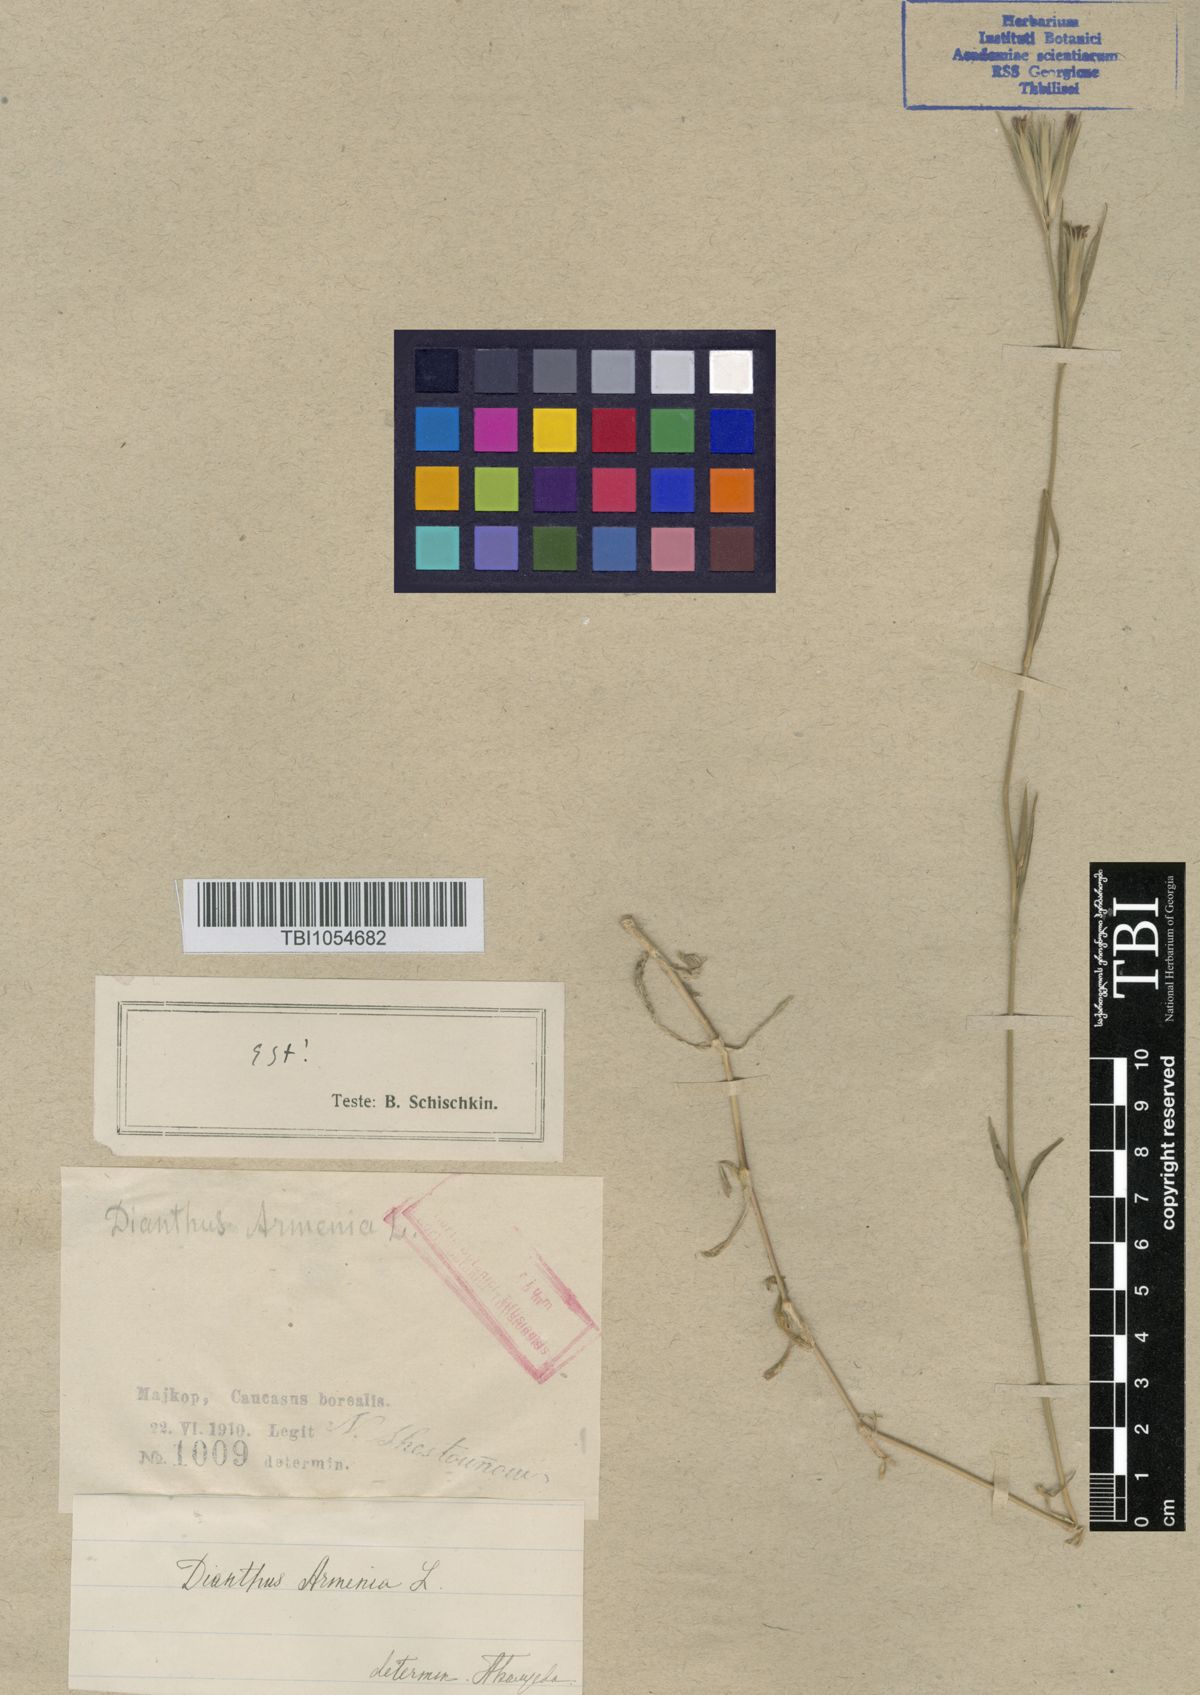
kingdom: Plantae
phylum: Tracheophyta
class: Magnoliopsida
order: Caryophyllales
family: Caryophyllaceae
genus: Dianthus
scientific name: Dianthus armeria
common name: Deptford pink
